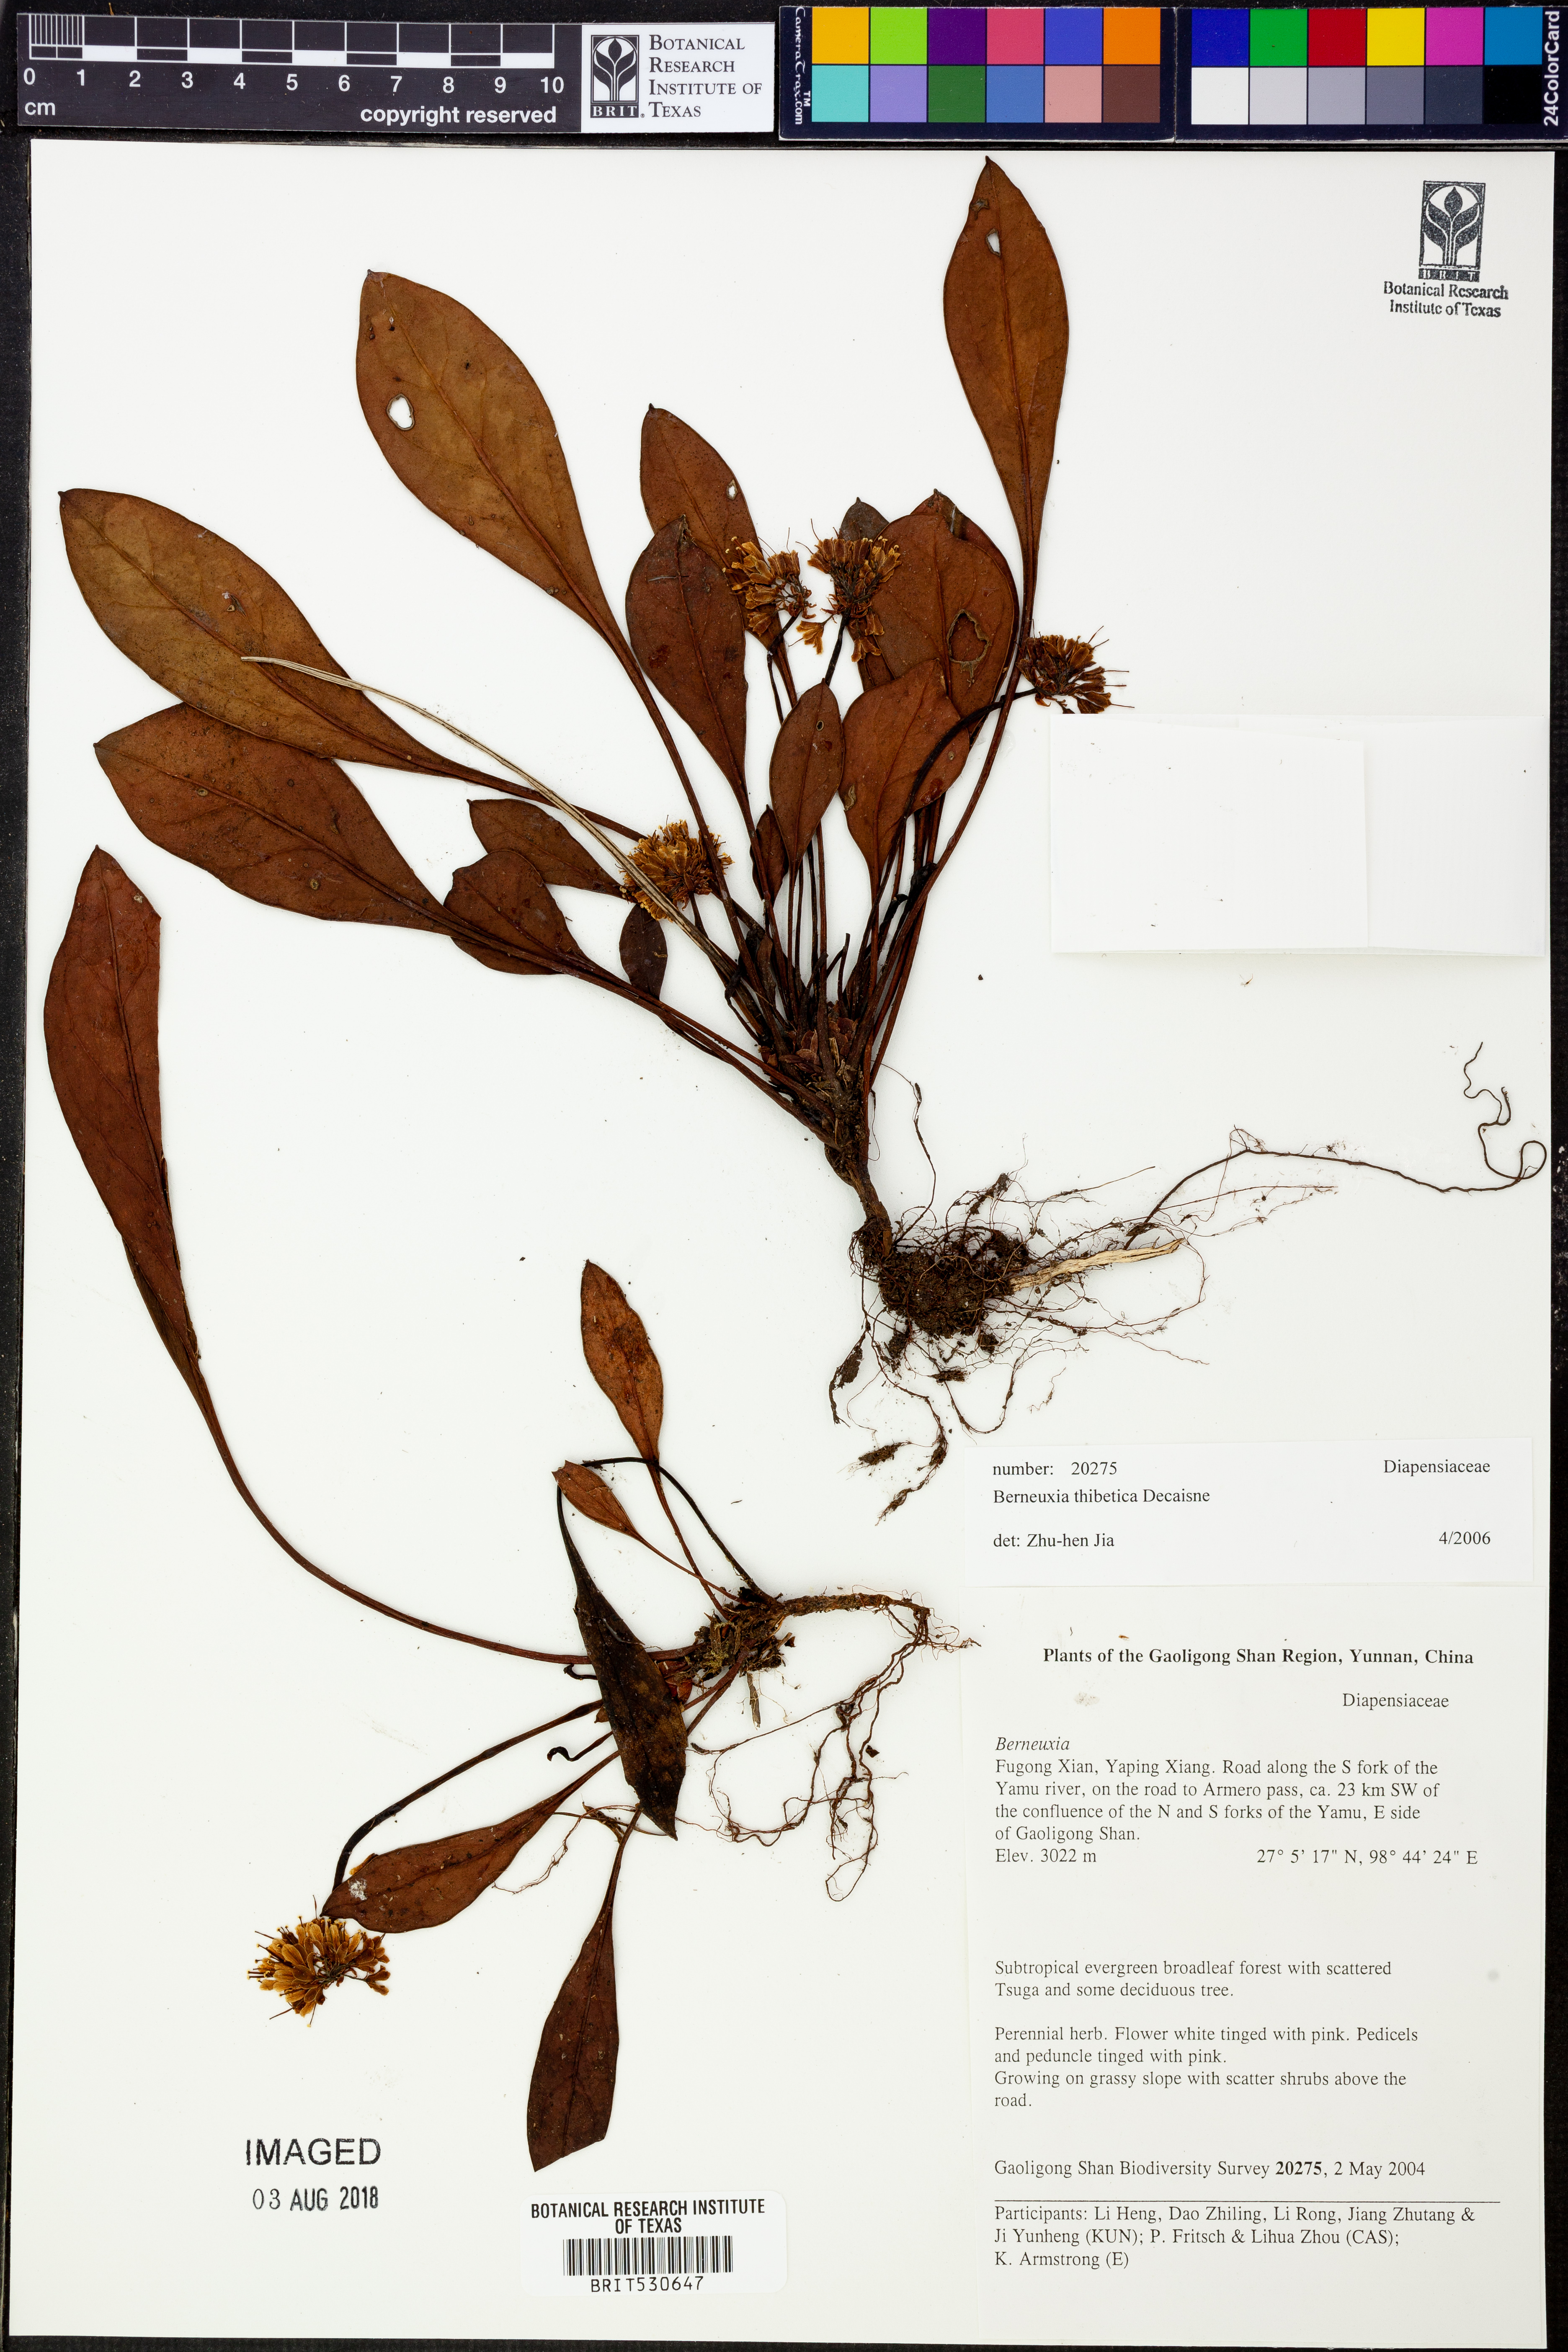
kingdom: Plantae
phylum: Tracheophyta
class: Magnoliopsida
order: Ericales
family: Diapensiaceae
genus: Berneuxia
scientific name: Berneuxia thibetica
